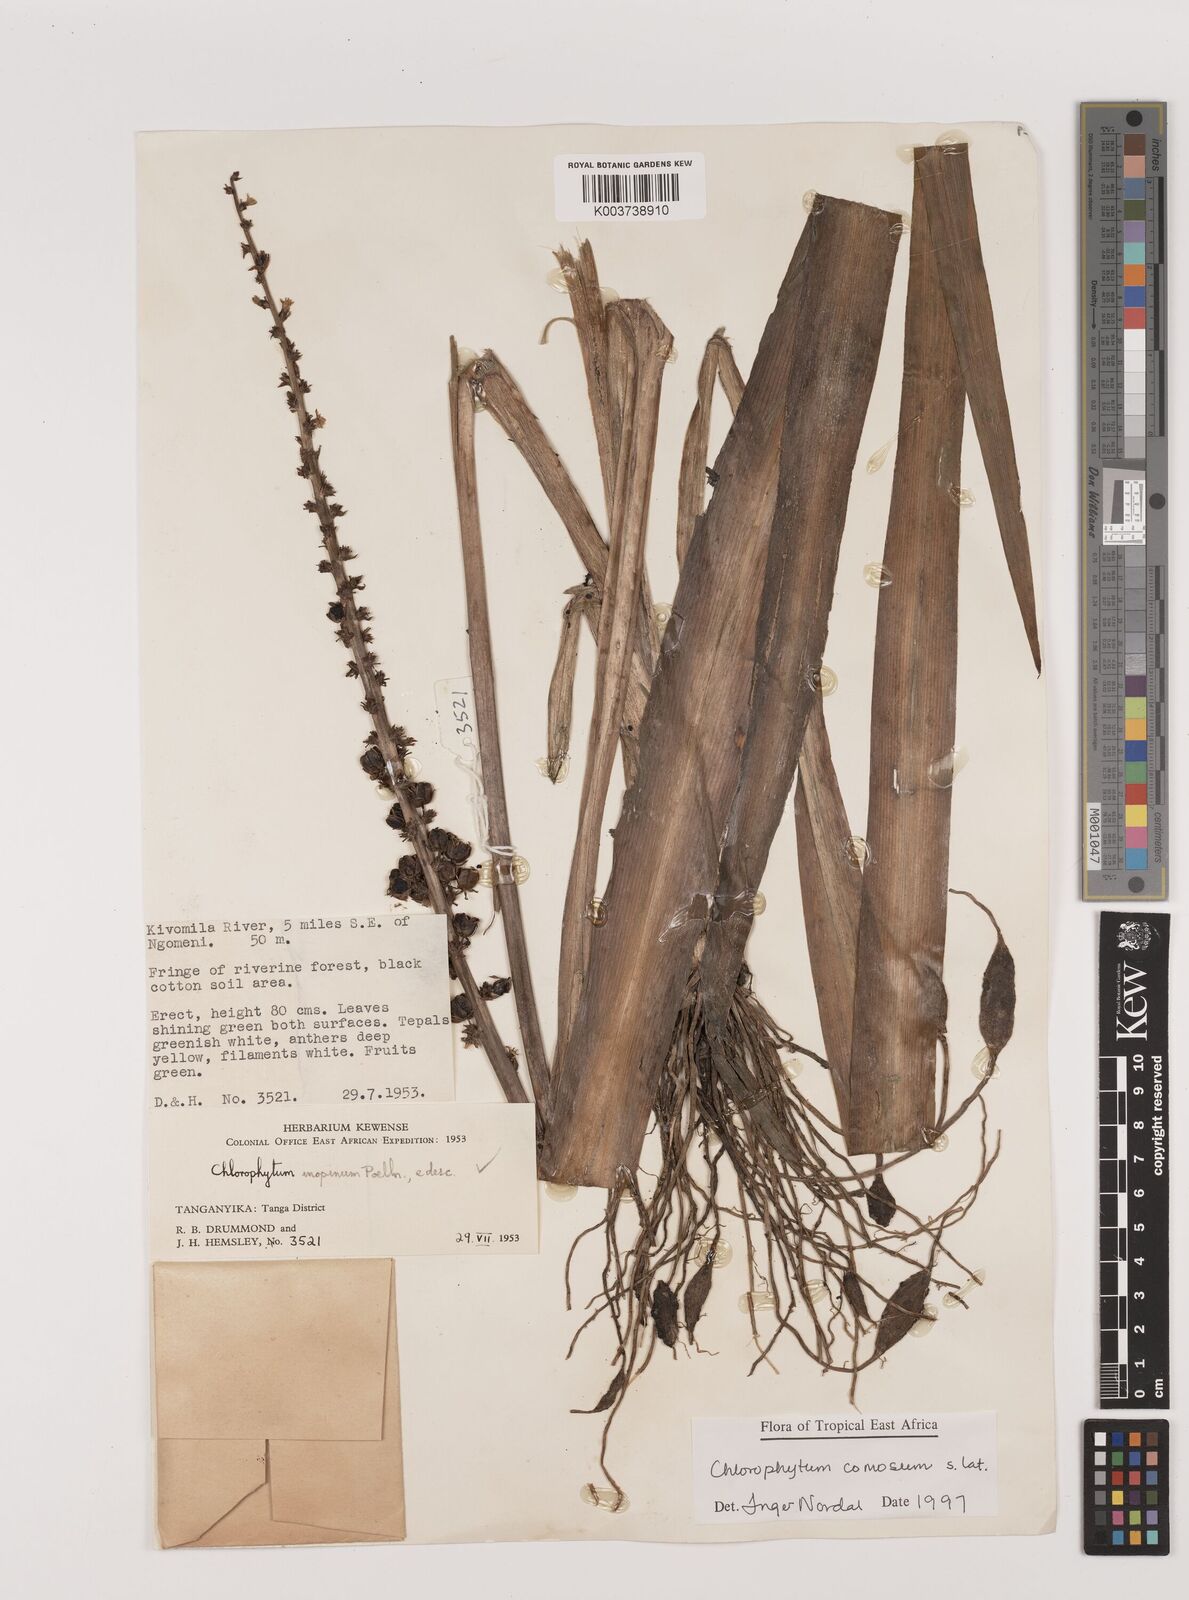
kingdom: Plantae
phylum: Tracheophyta
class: Liliopsida
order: Asparagales
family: Asparagaceae
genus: Chlorophytum
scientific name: Chlorophytum comosum
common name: Spider plant
